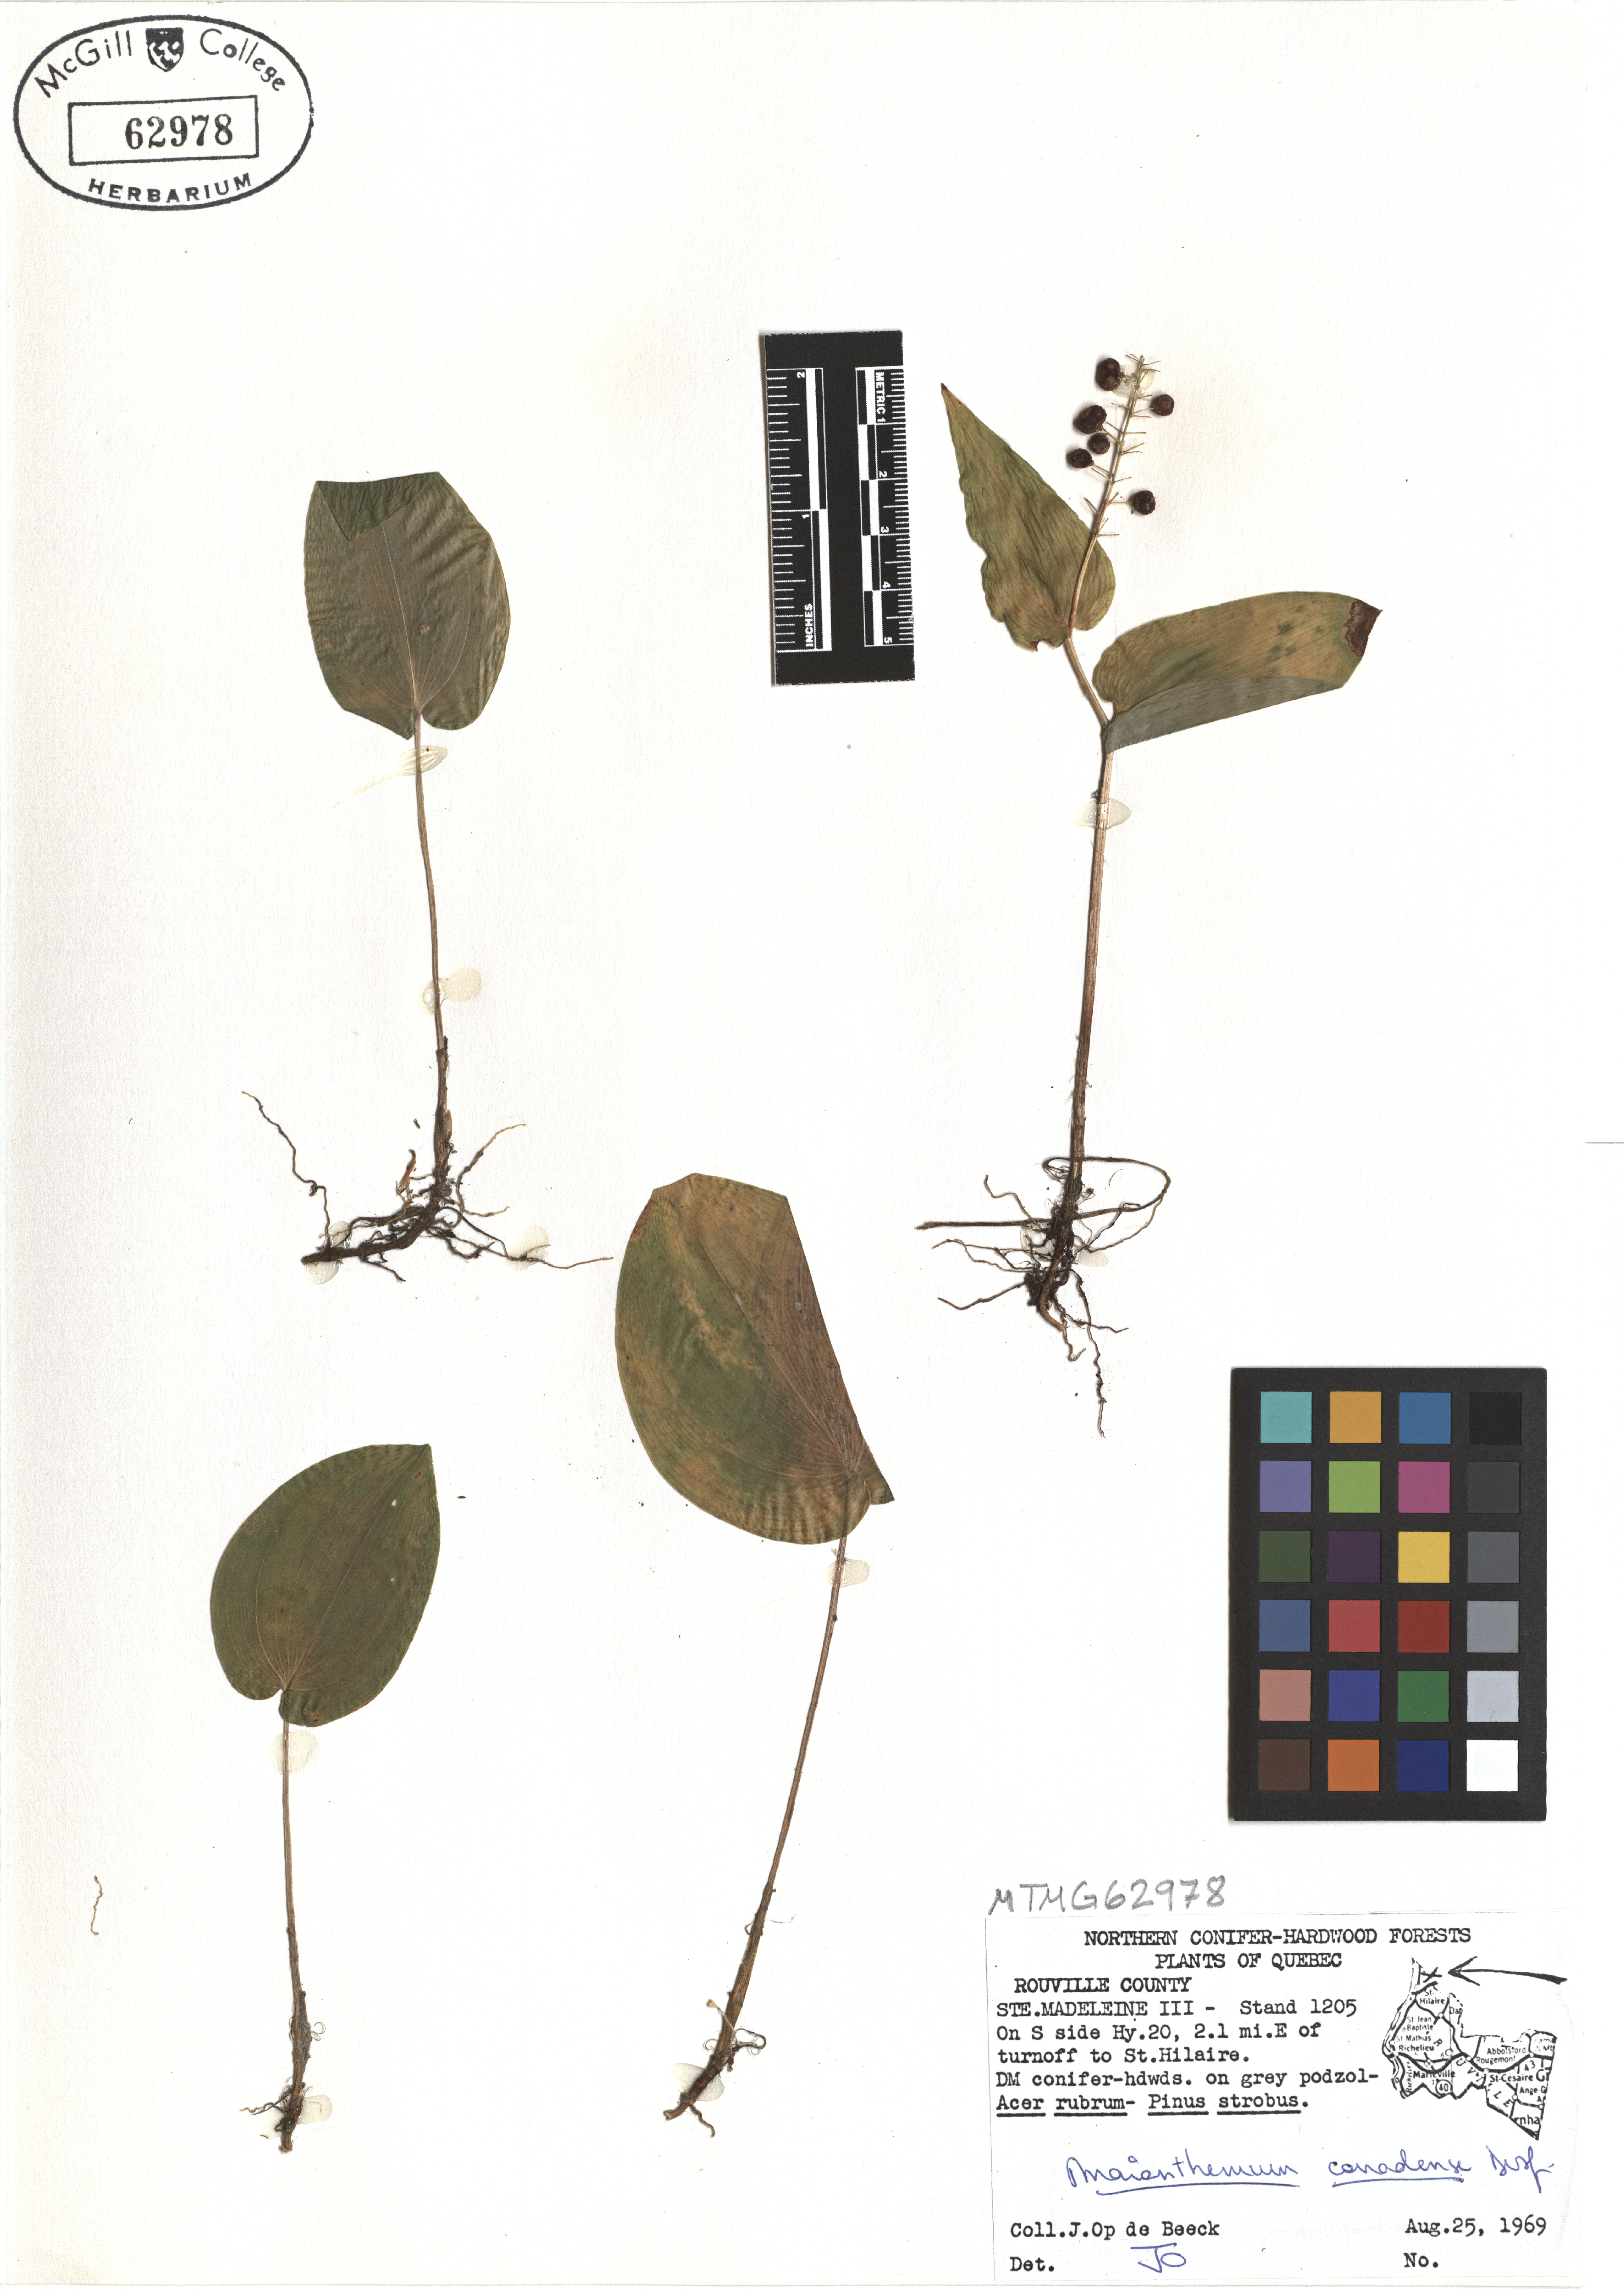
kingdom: Plantae
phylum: Tracheophyta
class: Liliopsida
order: Asparagales
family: Asparagaceae
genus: Maianthemum
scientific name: Maianthemum canadense
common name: False lily-of-the-valley
